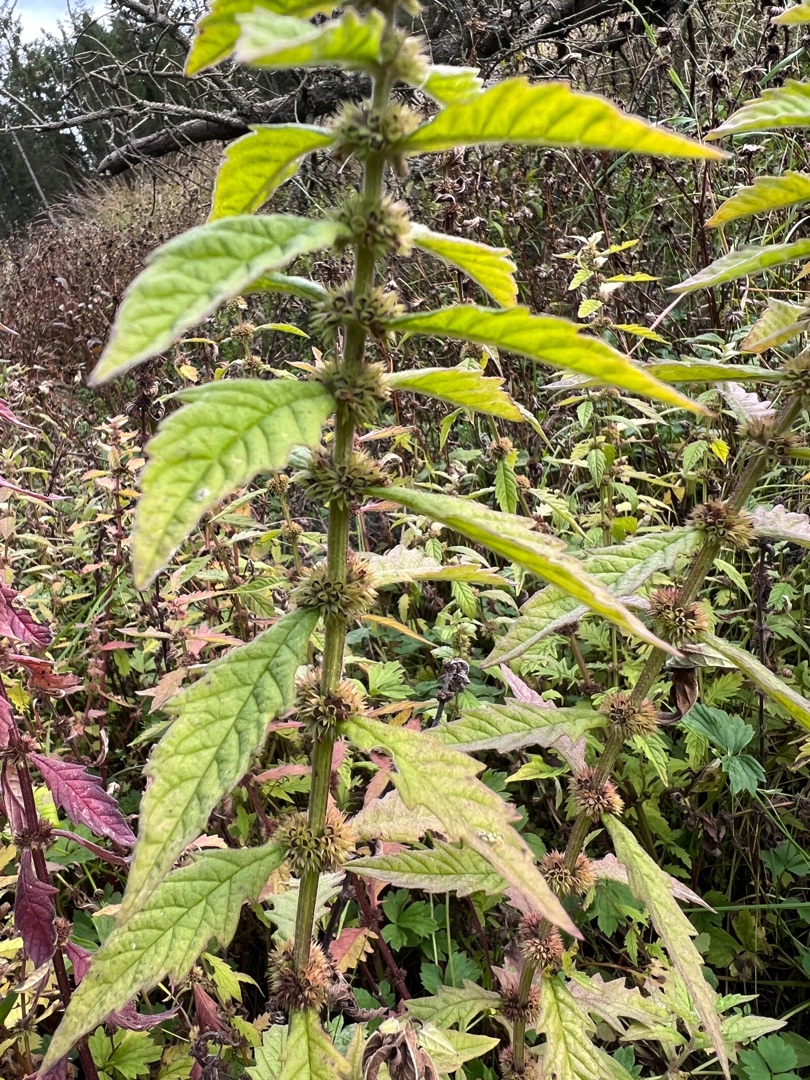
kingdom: Plantae
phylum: Tracheophyta
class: Magnoliopsida
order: Lamiales
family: Lamiaceae
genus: Lycopus
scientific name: Lycopus europaeus
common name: Sværtevæld
